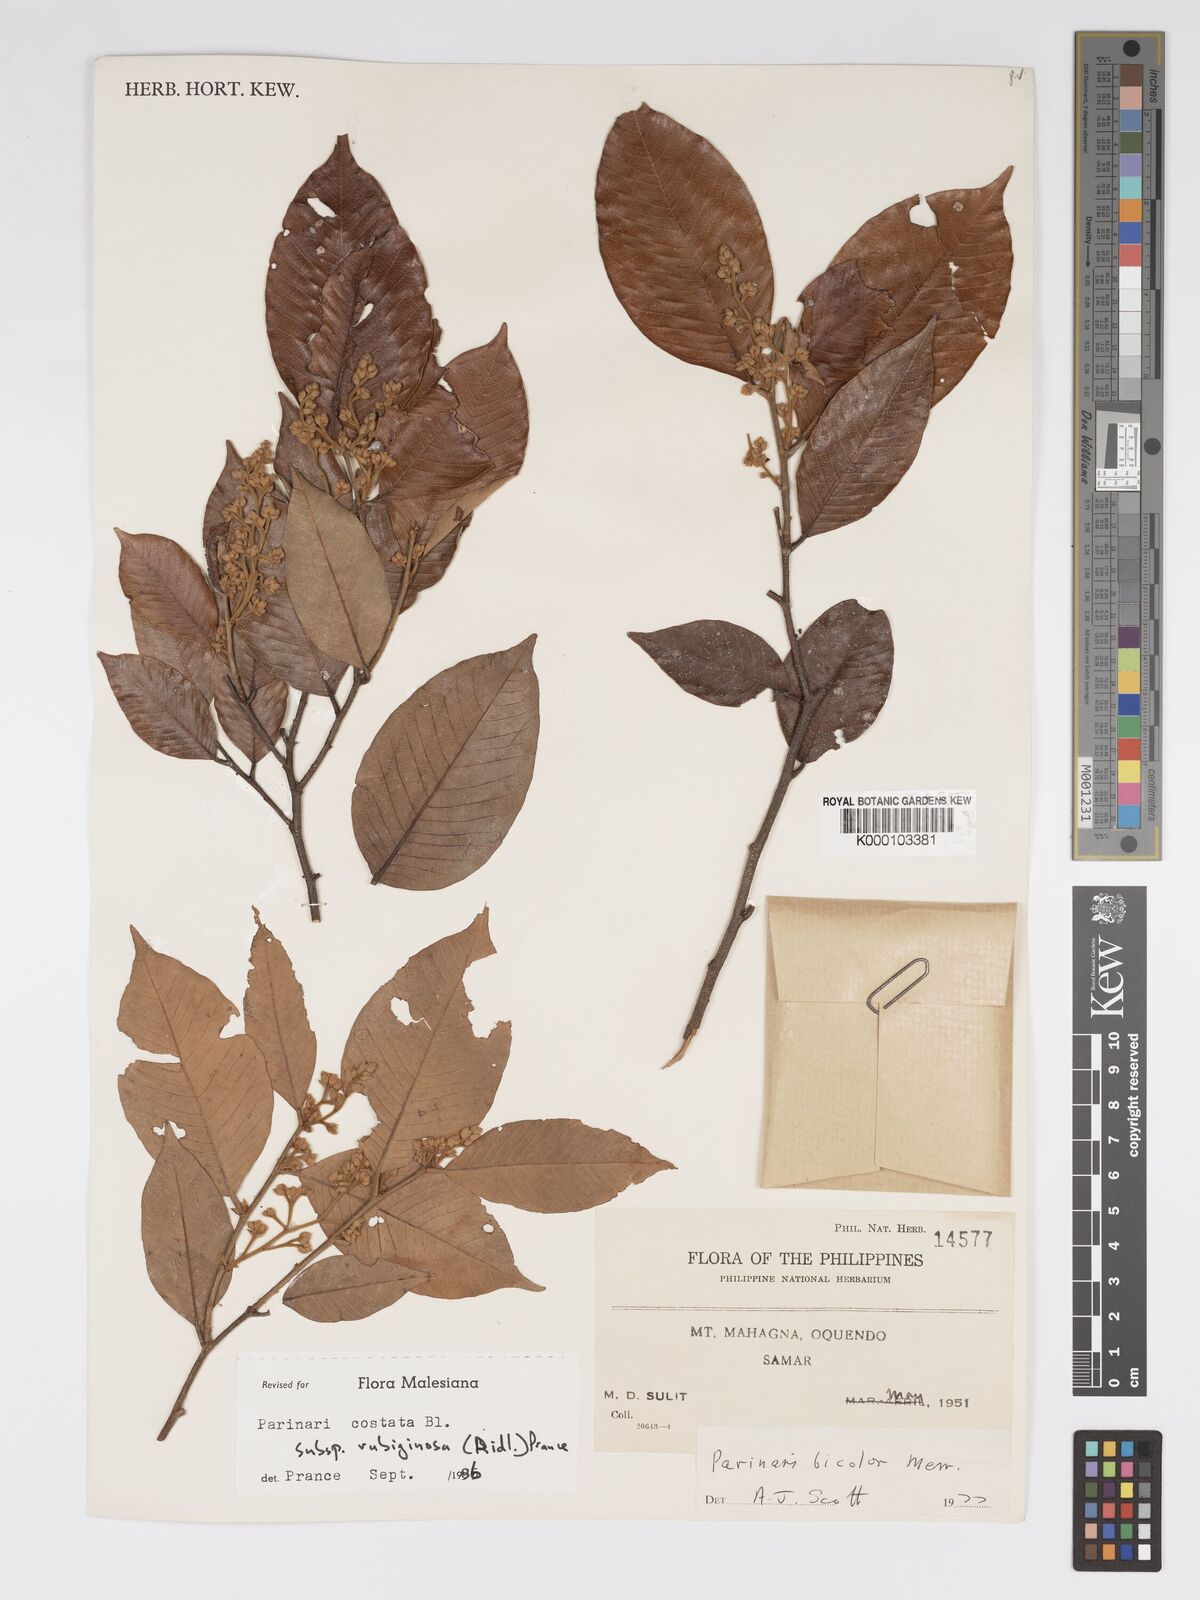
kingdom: Plantae
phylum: Tracheophyta
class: Magnoliopsida
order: Malpighiales
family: Chrysobalanaceae
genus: Parinari
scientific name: Parinari costata
